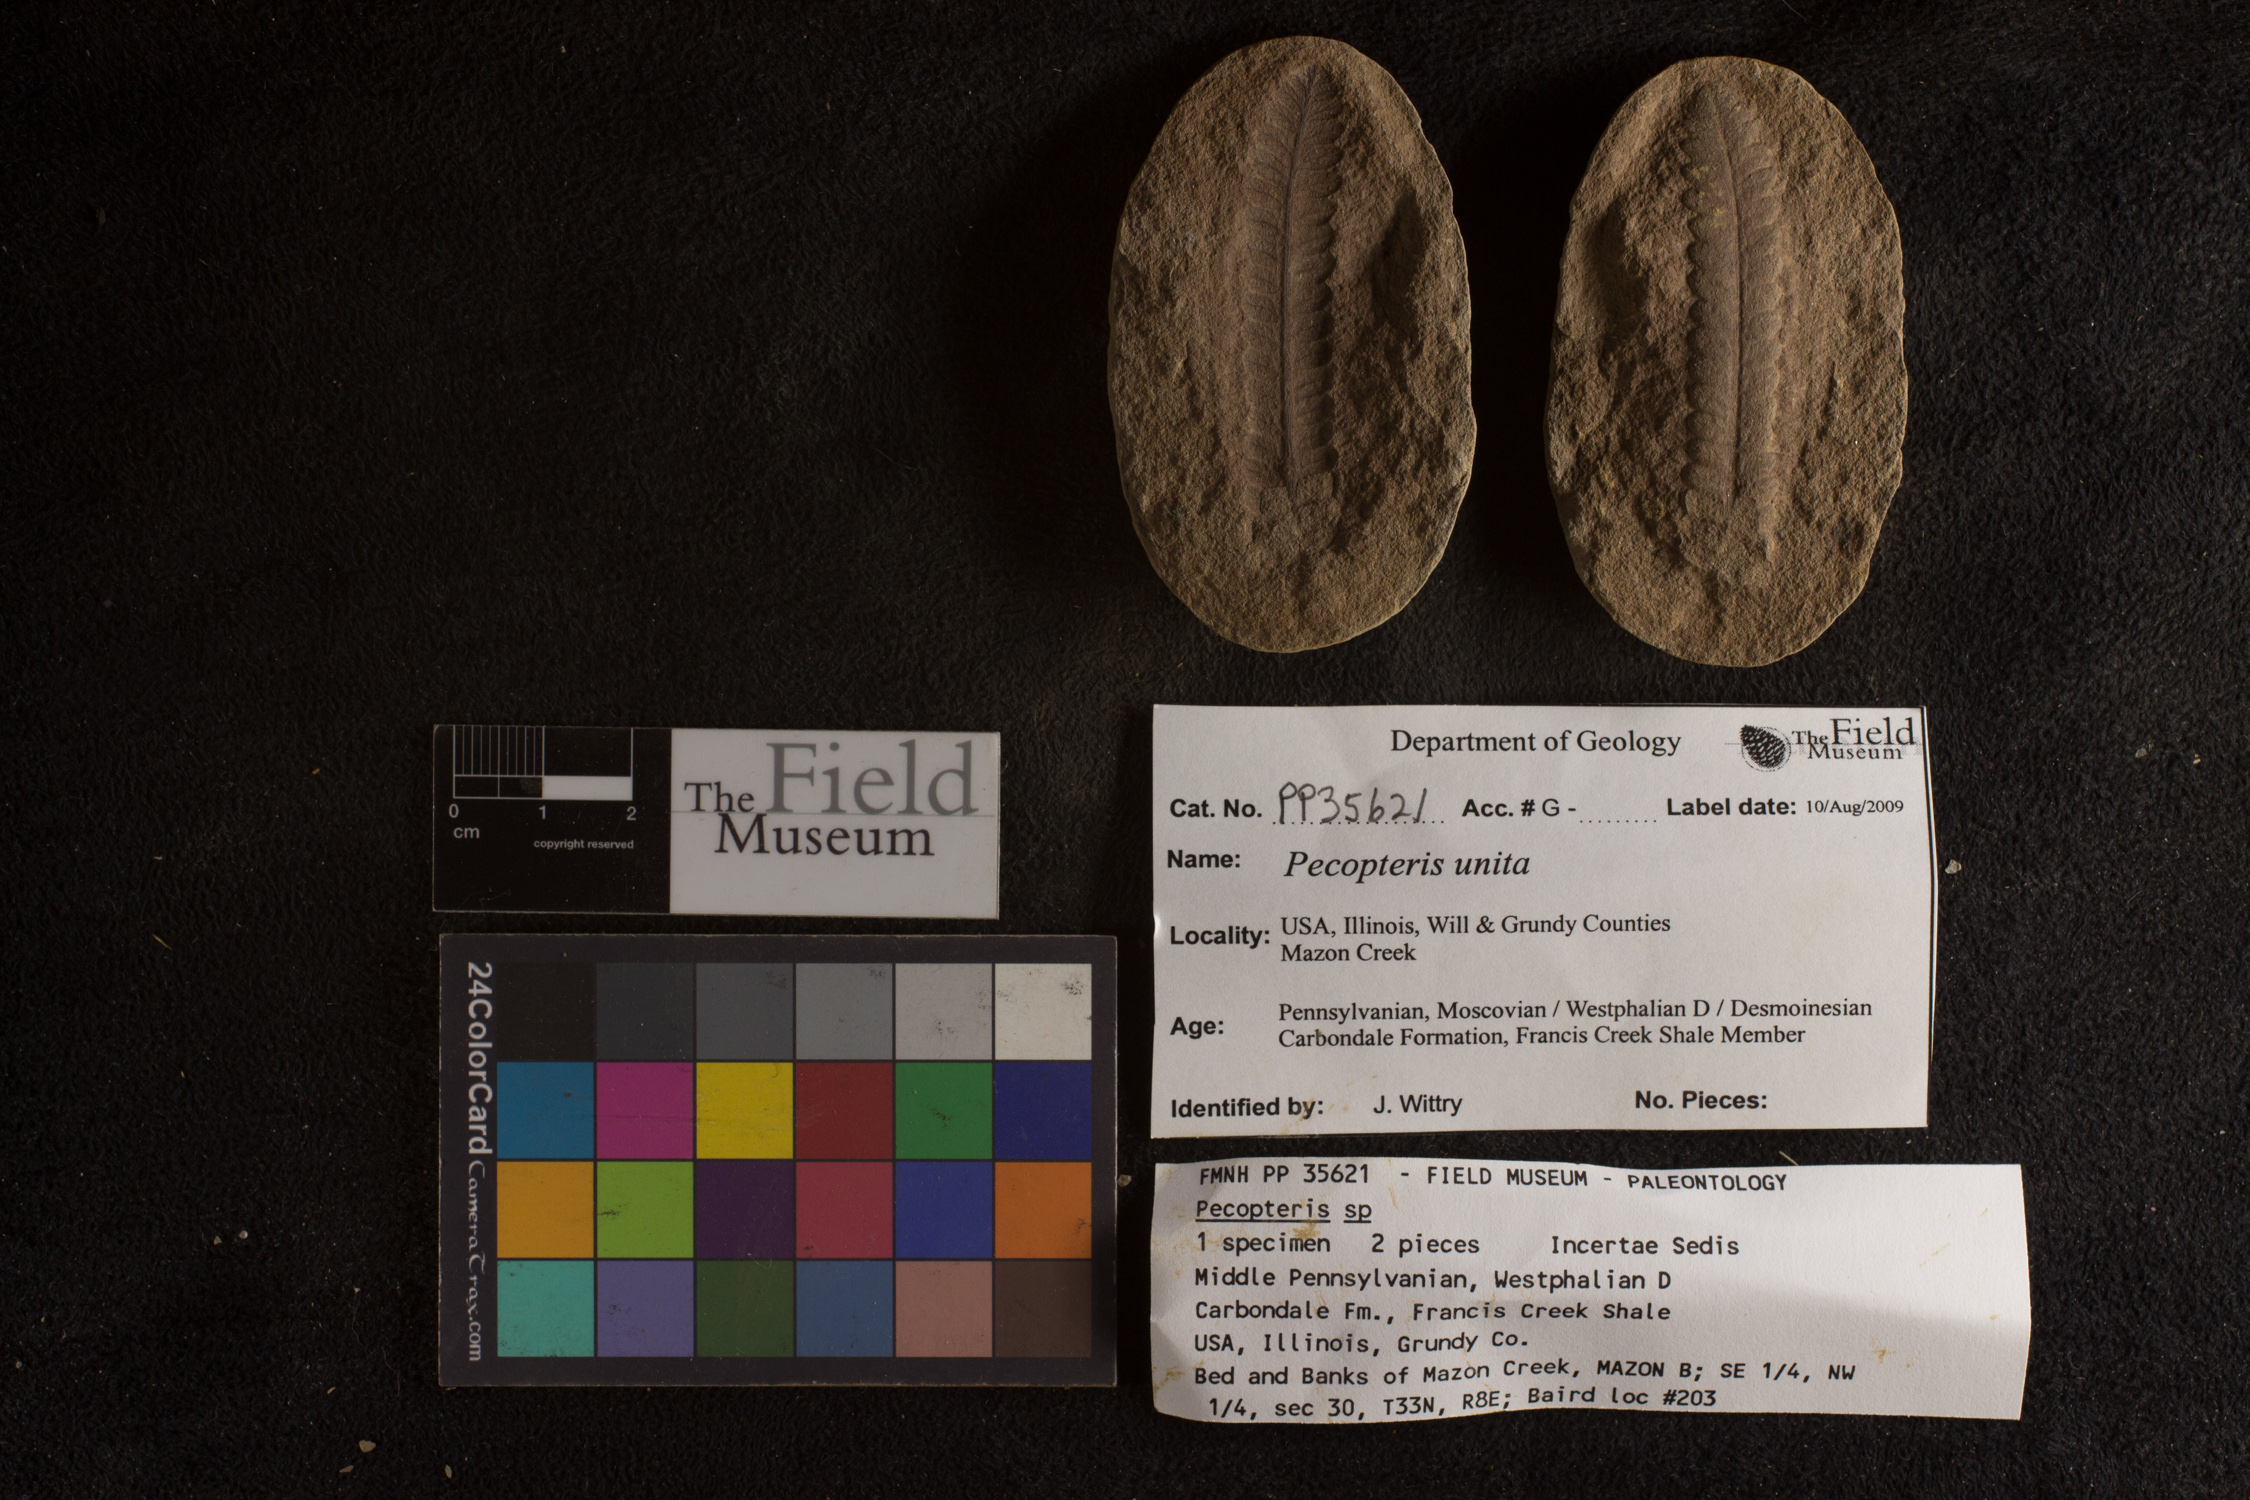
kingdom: Plantae
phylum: Tracheophyta
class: Polypodiopsida
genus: Diplazites
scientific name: Diplazites
